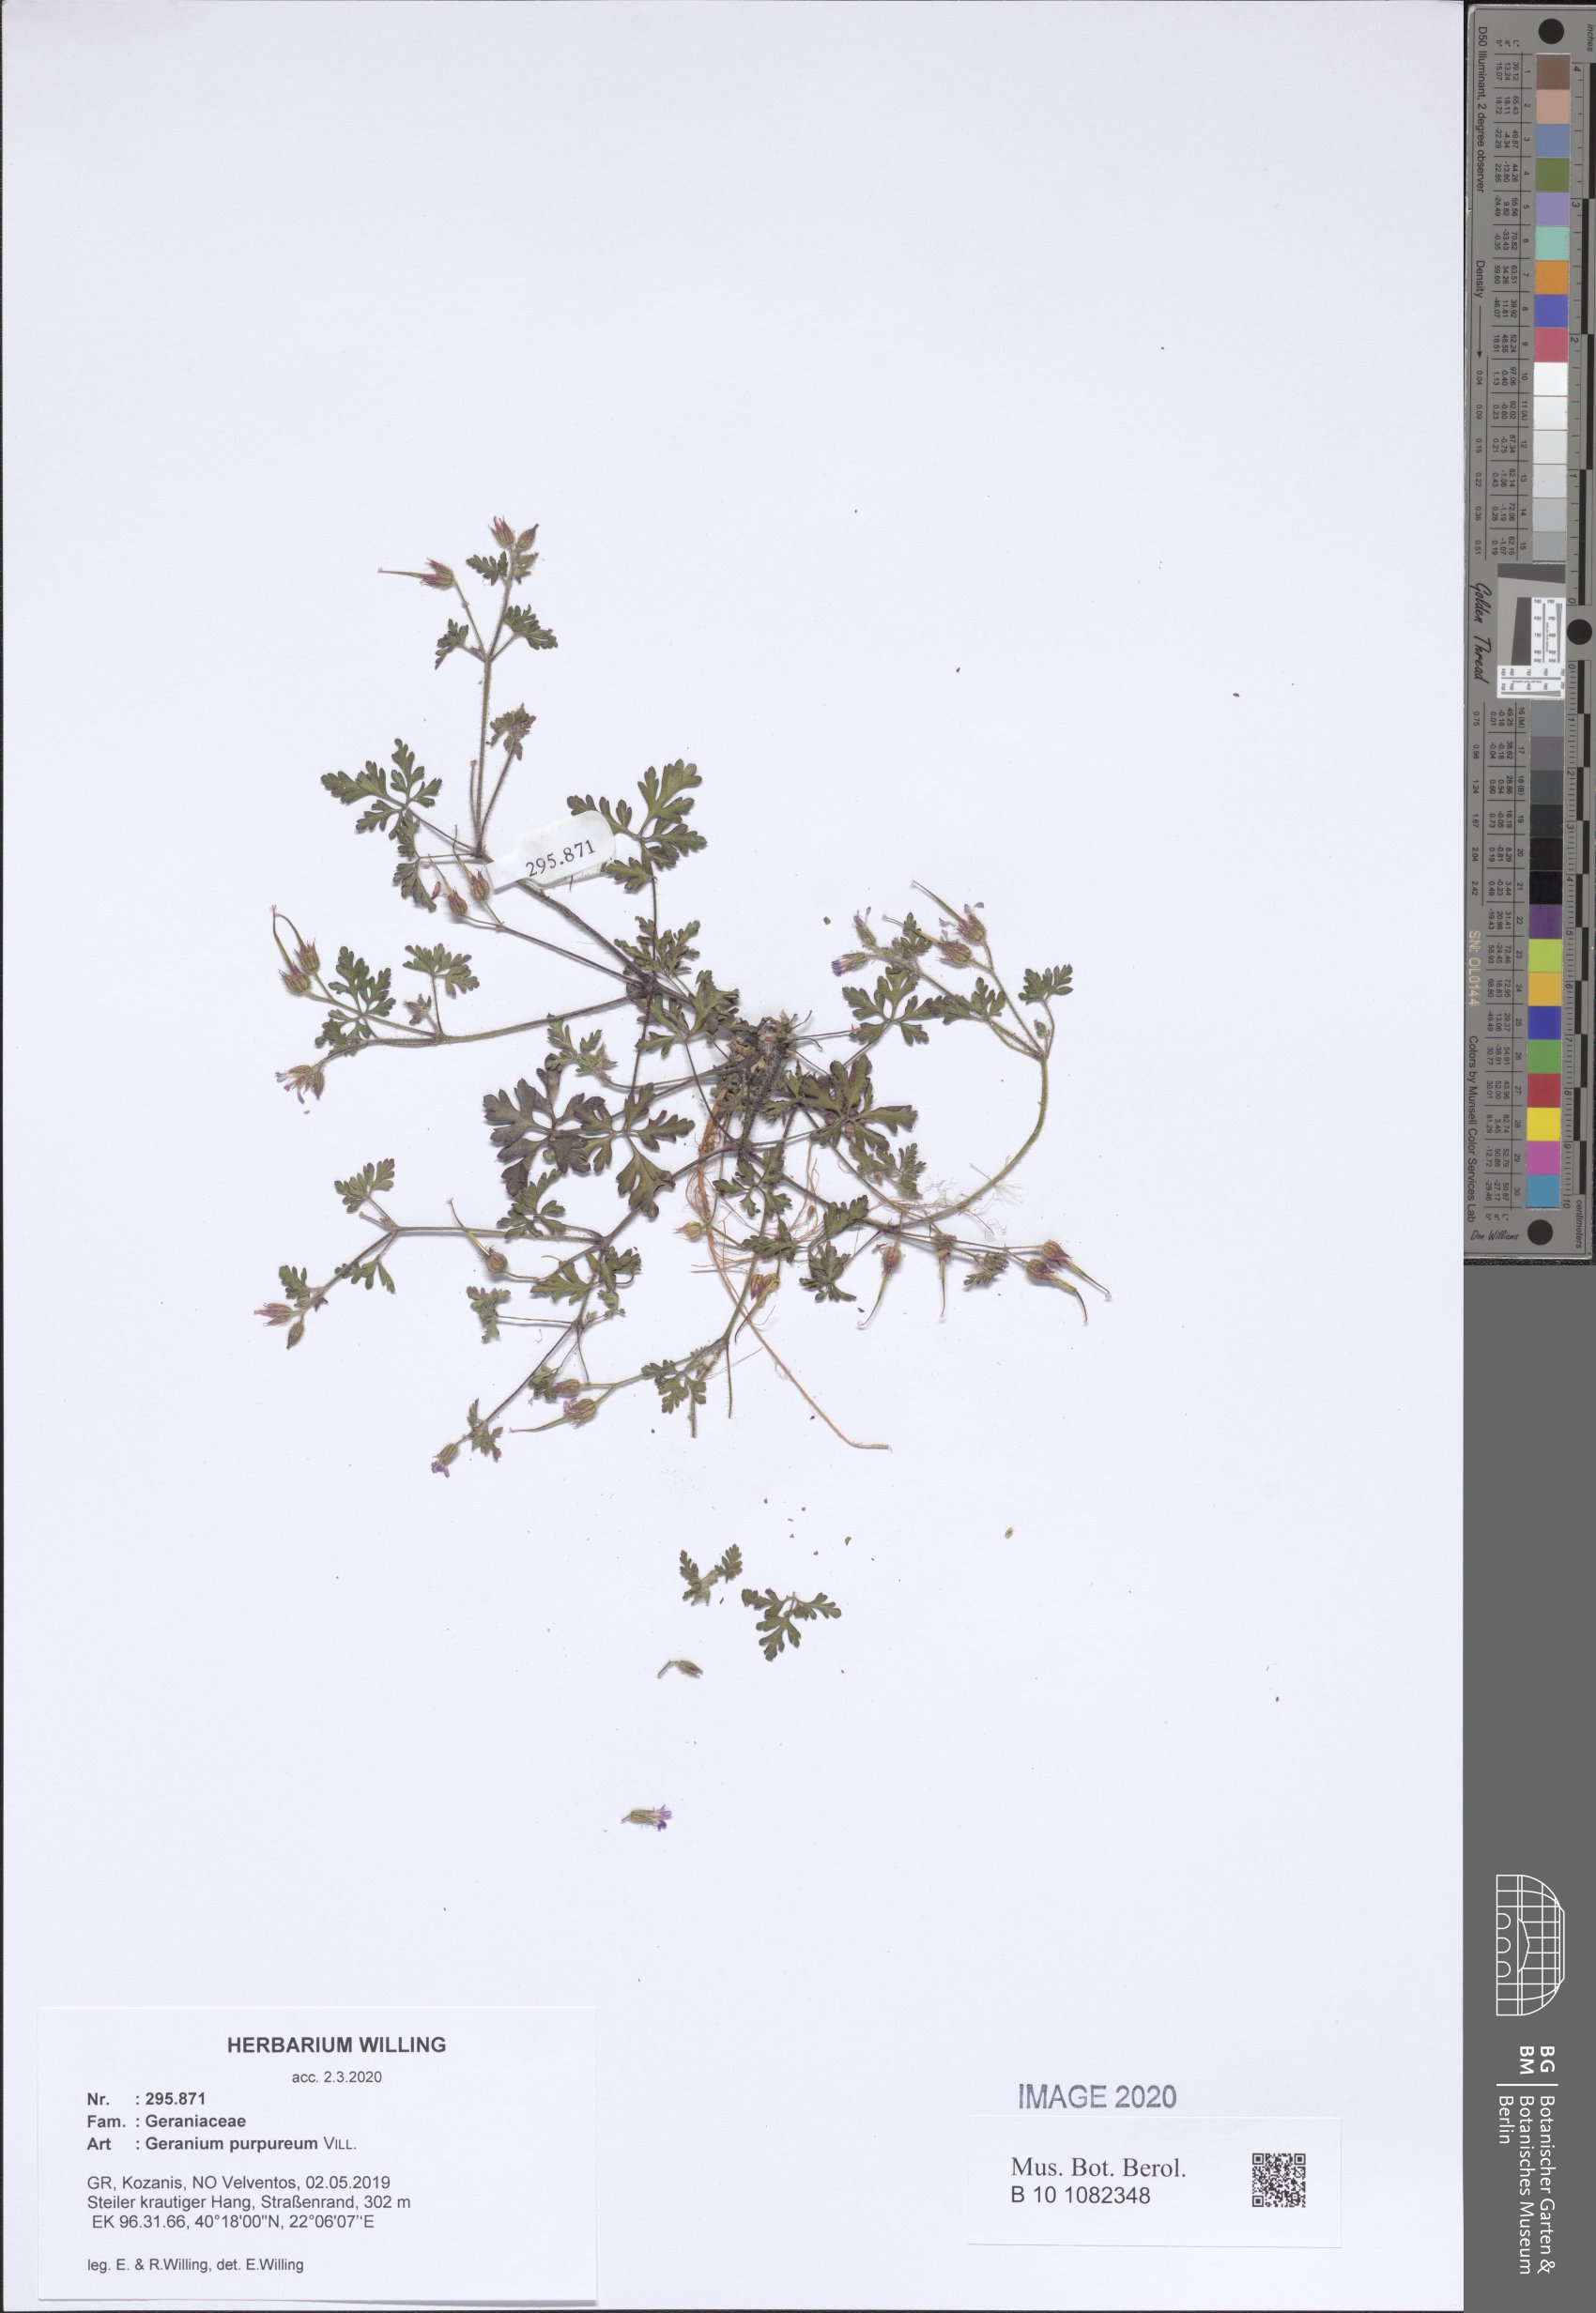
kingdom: Plantae
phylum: Tracheophyta
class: Magnoliopsida
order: Geraniales
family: Geraniaceae
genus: Geranium
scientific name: Geranium purpureum
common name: Little-robin
